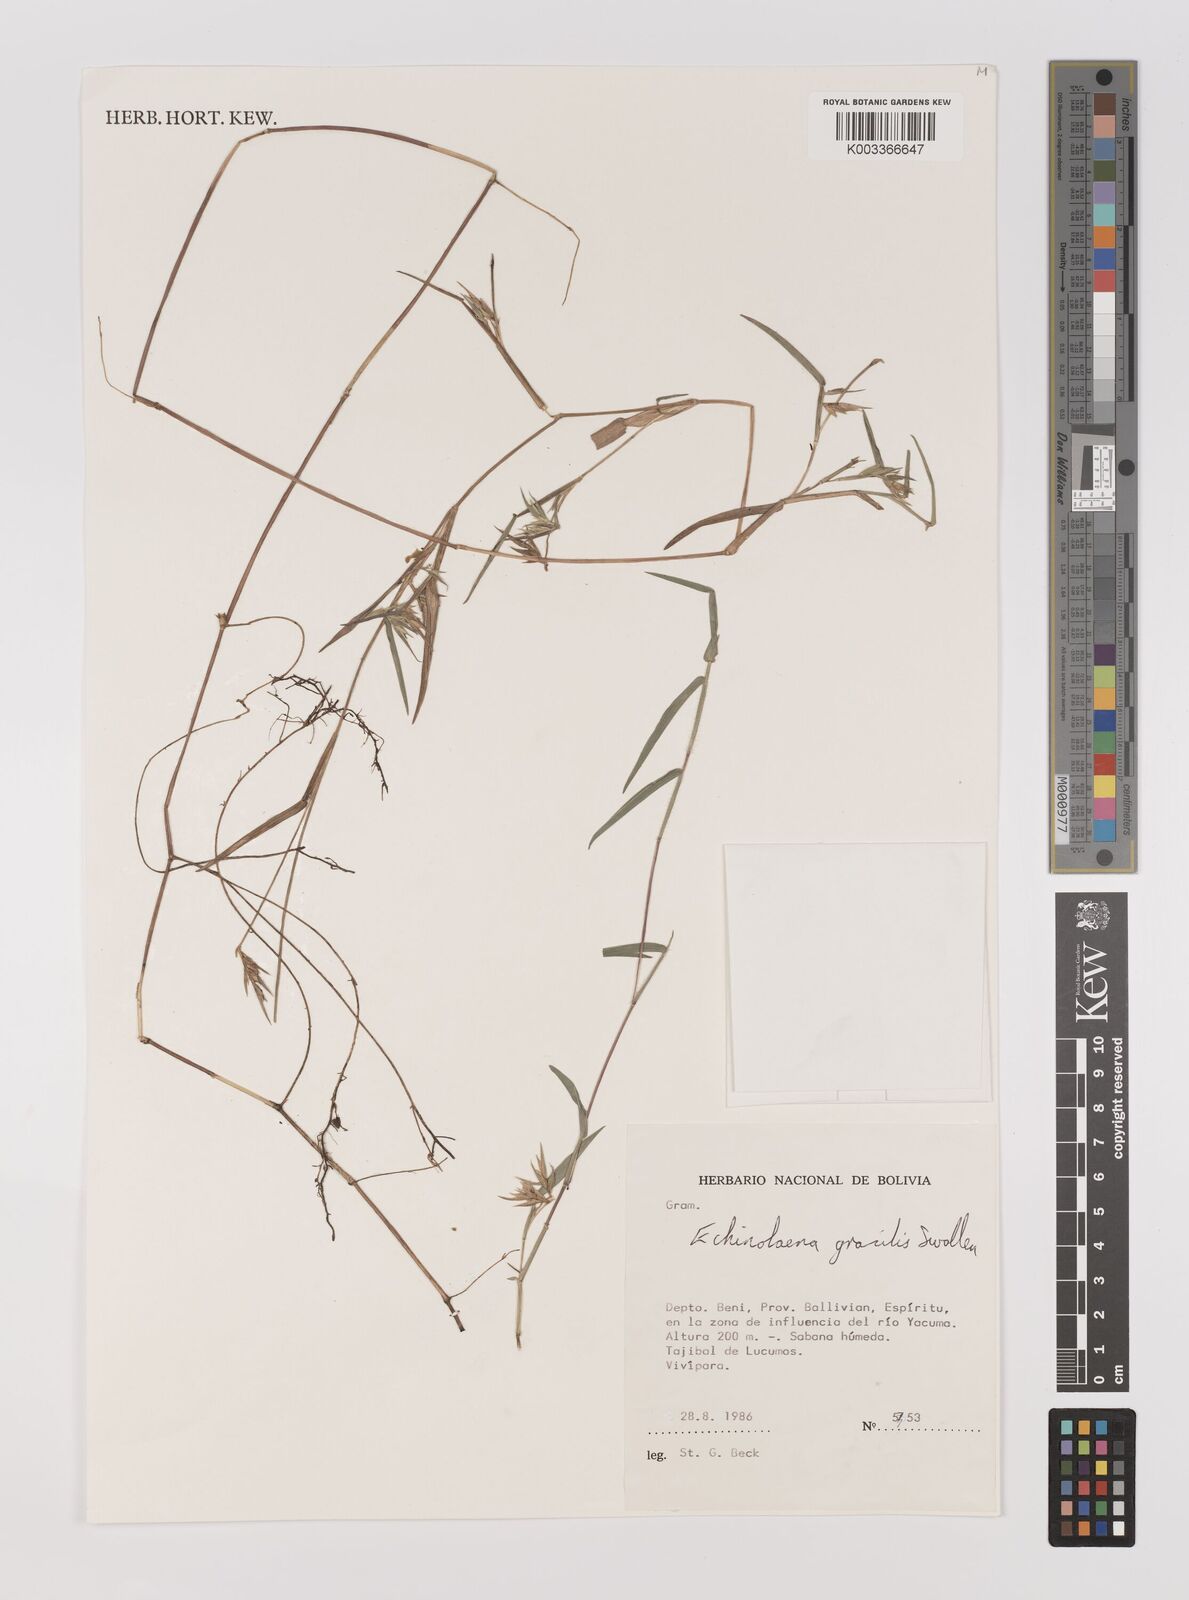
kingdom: Plantae
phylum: Tracheophyta
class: Liliopsida
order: Poales
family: Poaceae
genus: Echinolaena
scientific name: Echinolaena gracilis
